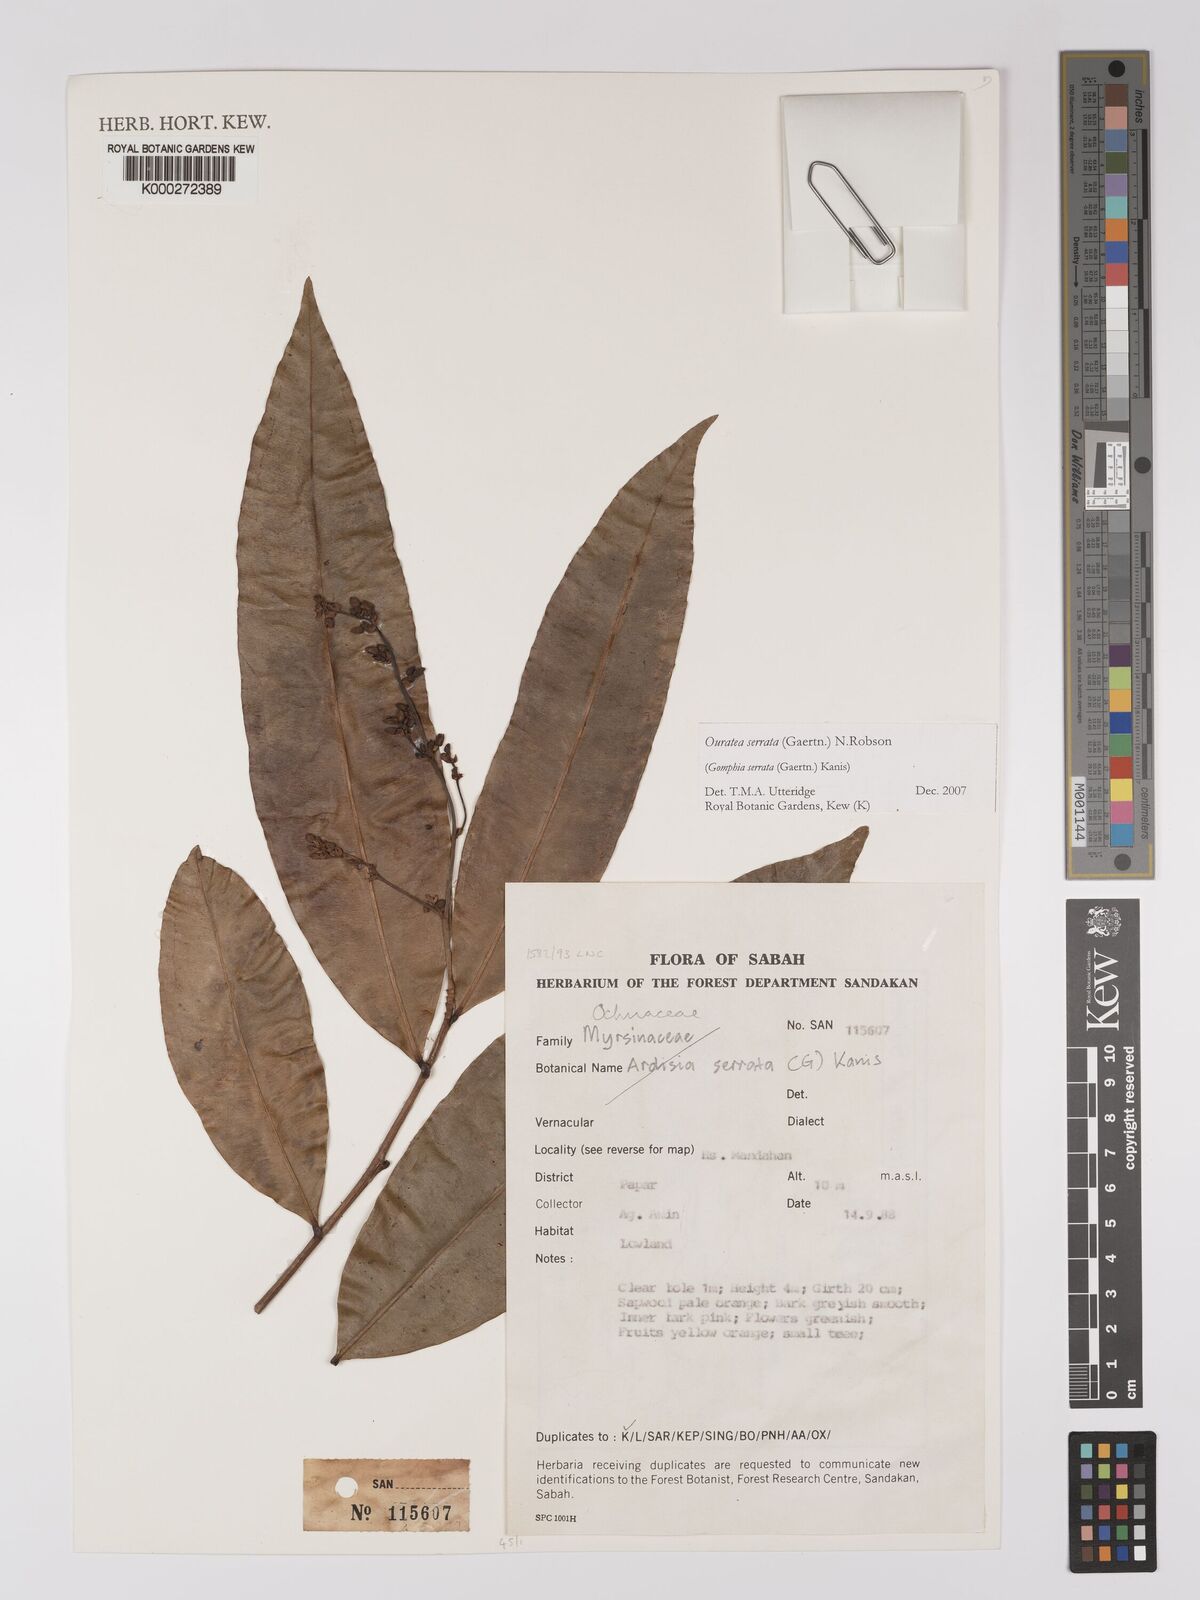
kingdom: Plantae
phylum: Tracheophyta
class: Magnoliopsida
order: Malpighiales
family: Ochnaceae
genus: Gomphia
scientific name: Gomphia serrata
